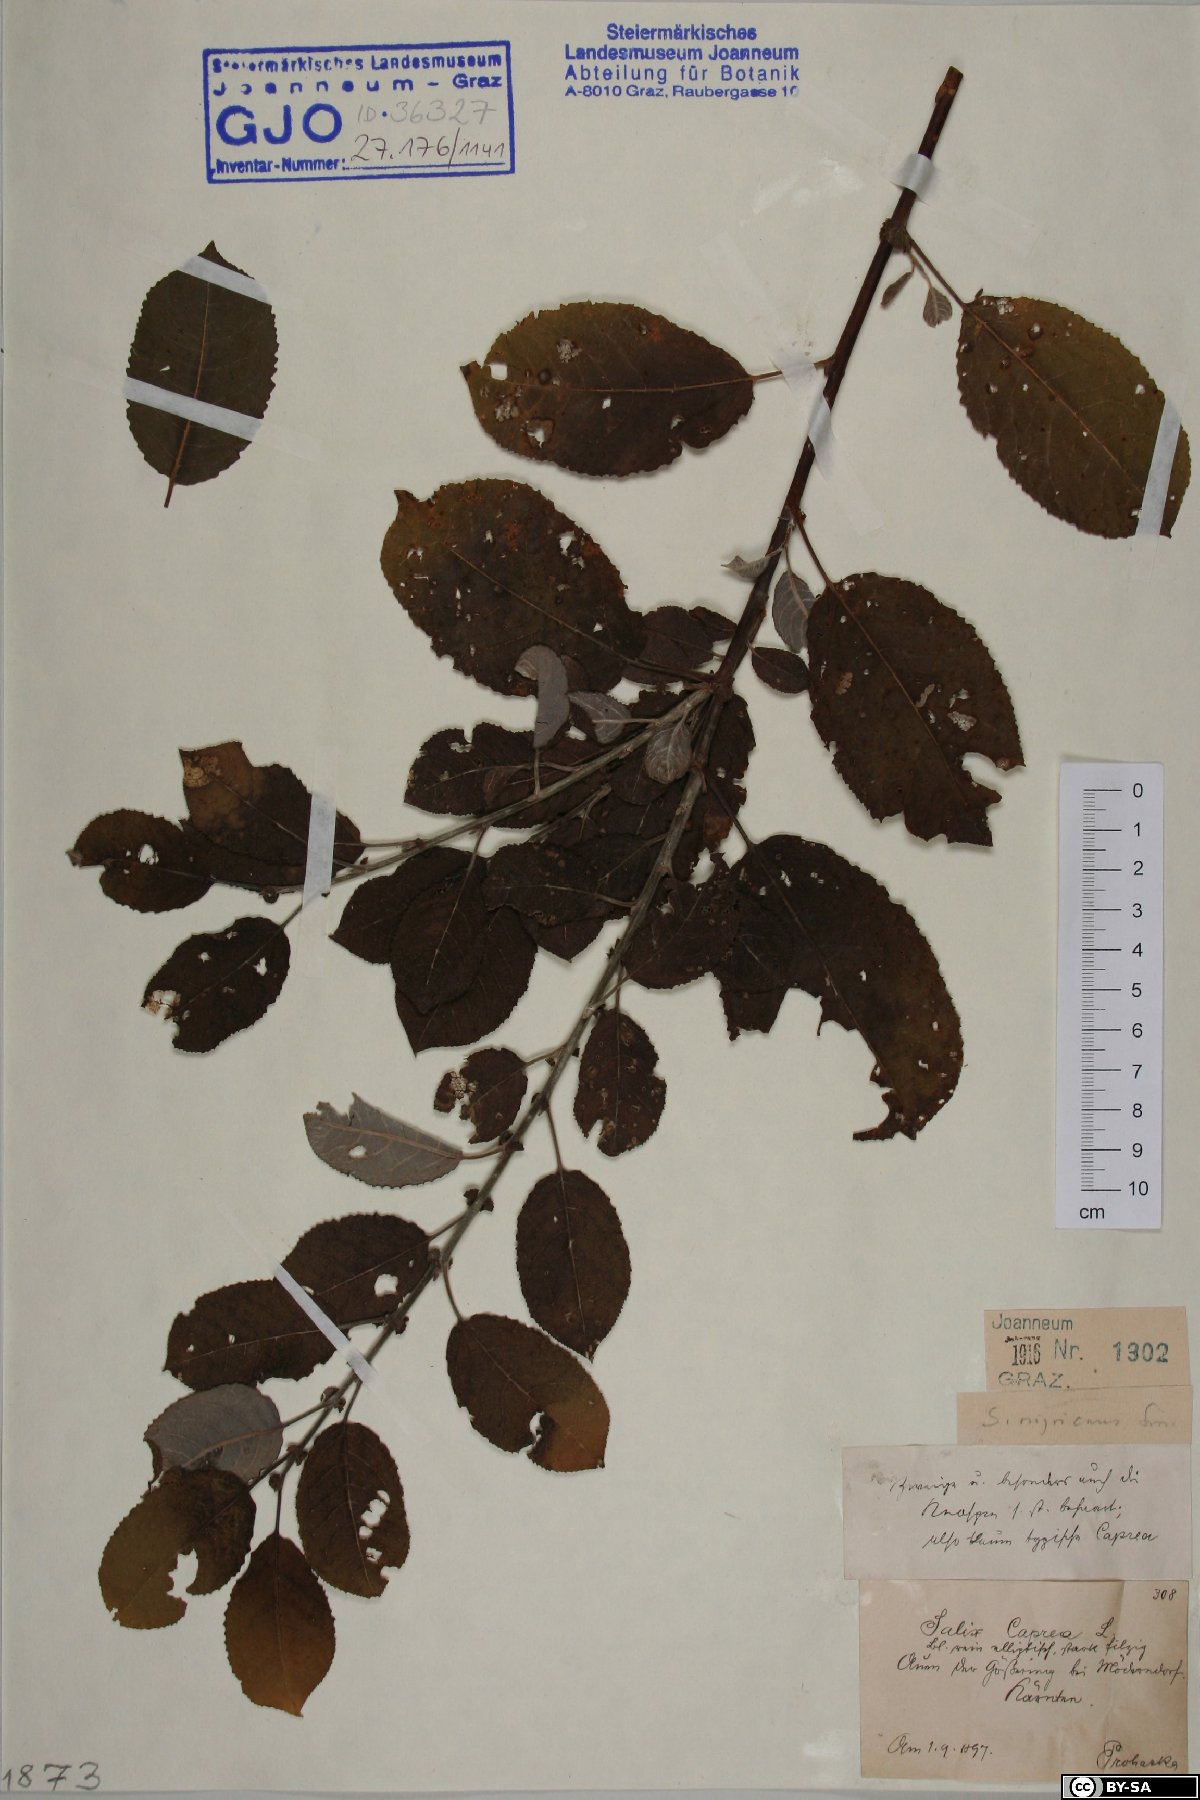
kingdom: Plantae
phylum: Tracheophyta
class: Magnoliopsida
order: Malpighiales
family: Salicaceae
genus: Salix
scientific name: Salix myrsinifolia
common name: Dark-leaved willow
